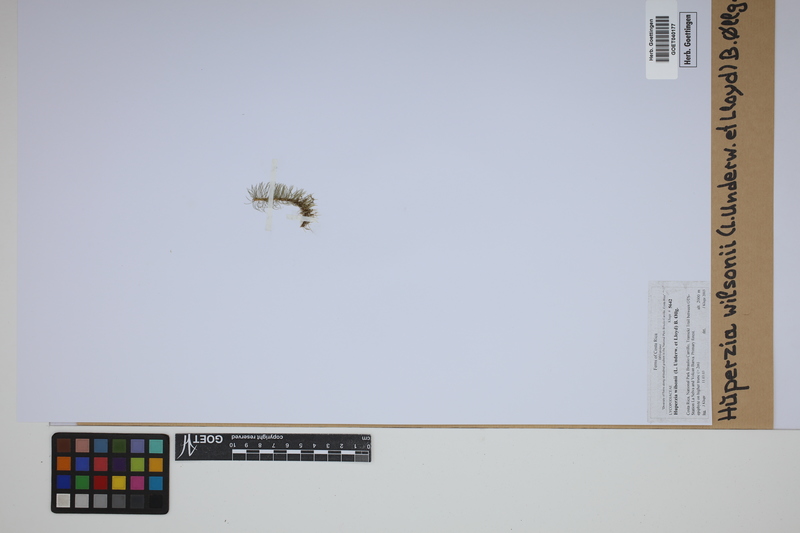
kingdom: Plantae
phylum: Tracheophyta
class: Lycopodiopsida
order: Lycopodiales
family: Lycopodiaceae
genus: Phlegmariurus
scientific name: Phlegmariurus wilsonii
